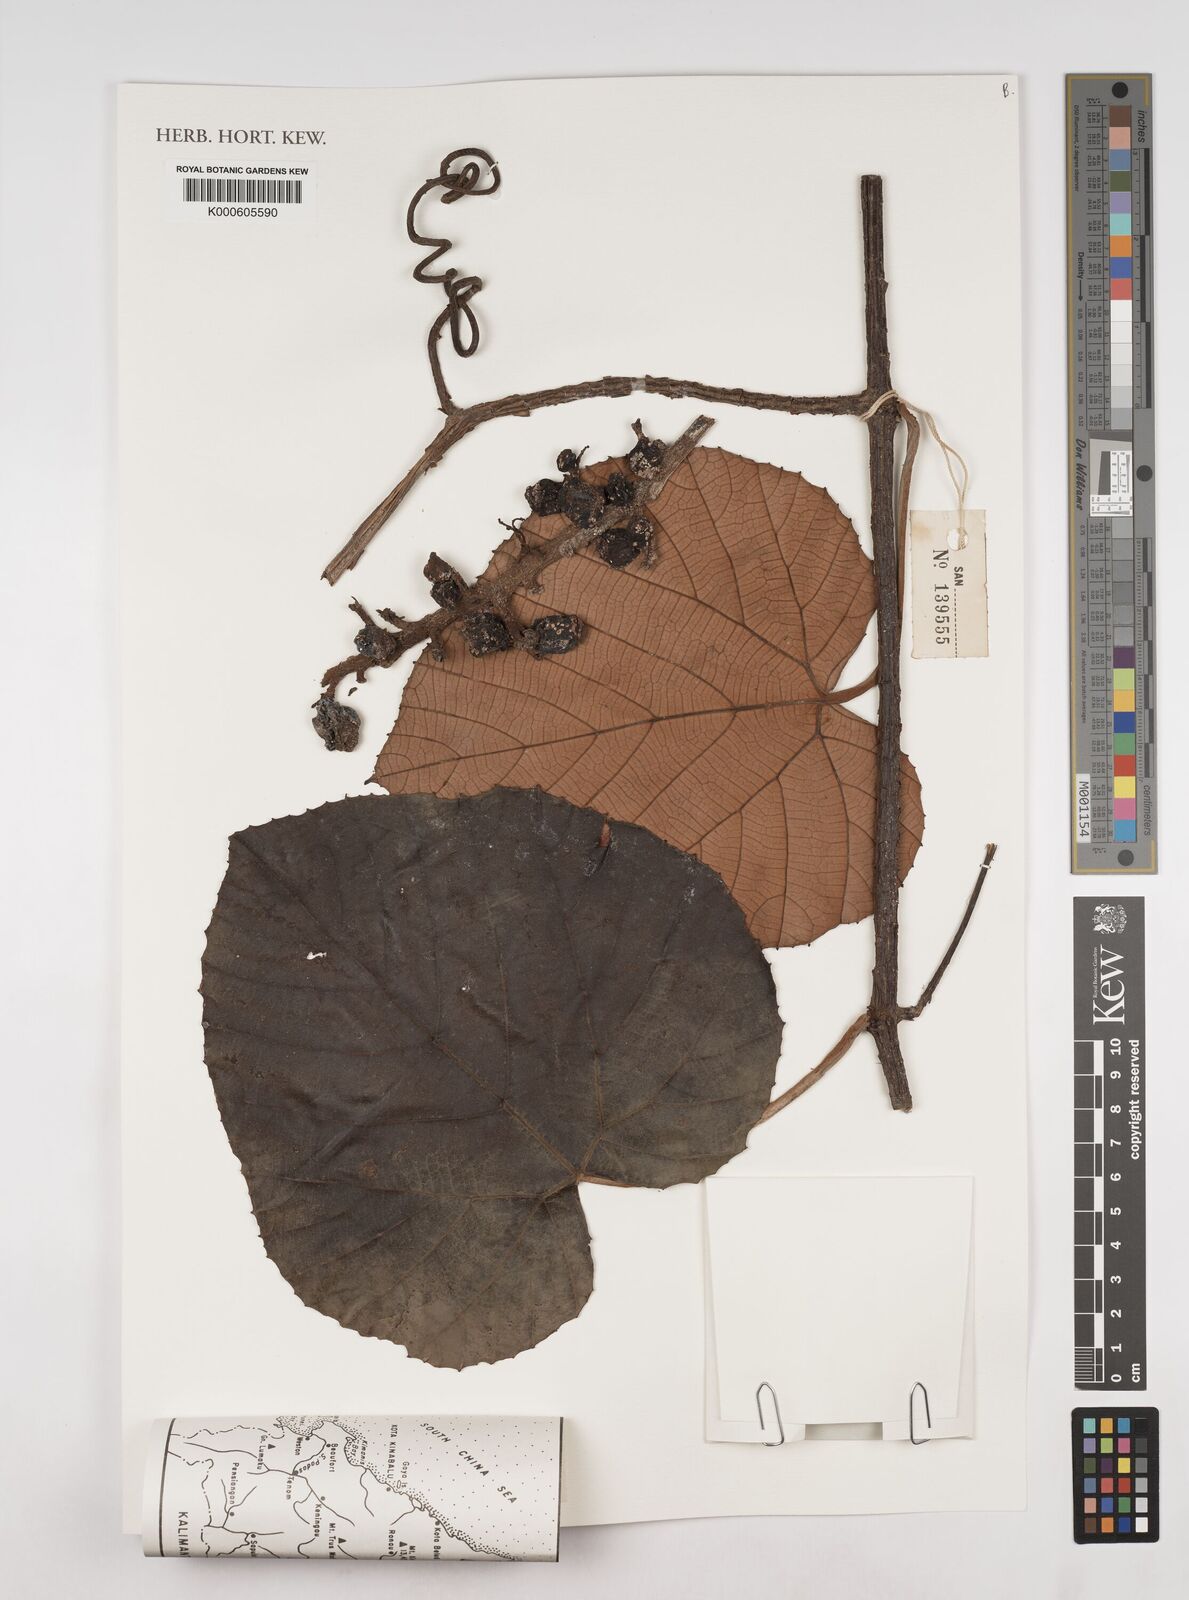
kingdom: Plantae
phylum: Tracheophyta
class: Magnoliopsida
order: Vitales
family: Vitaceae
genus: Ampelocissus
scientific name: Ampelocissus
